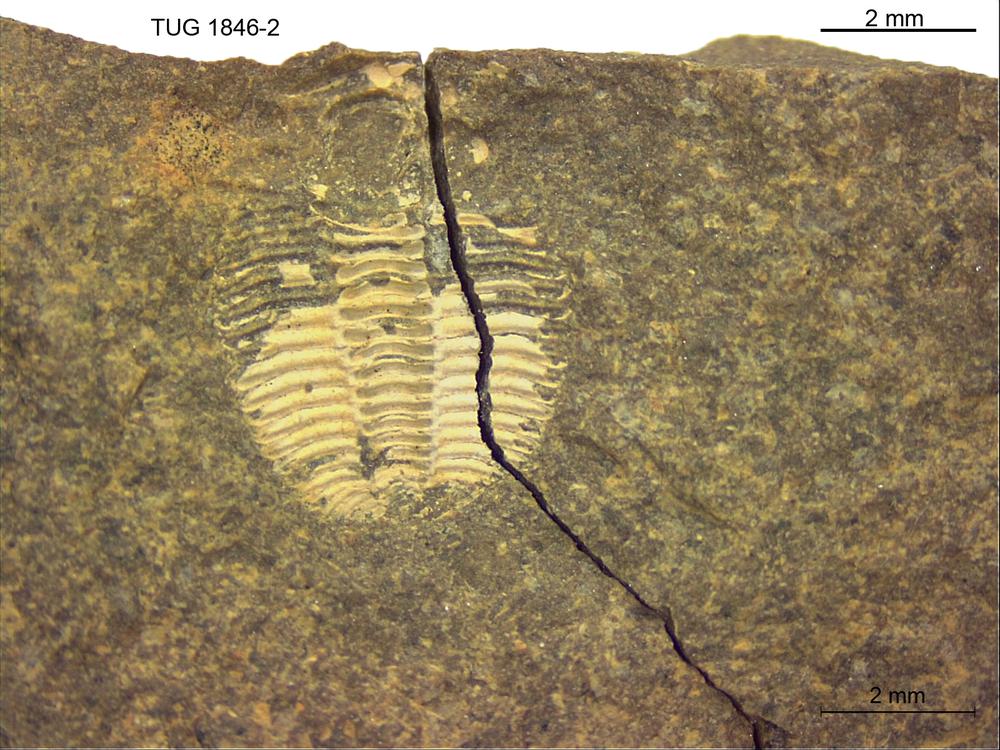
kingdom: Animalia
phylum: Arthropoda
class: Trilobita
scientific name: Trilobita
